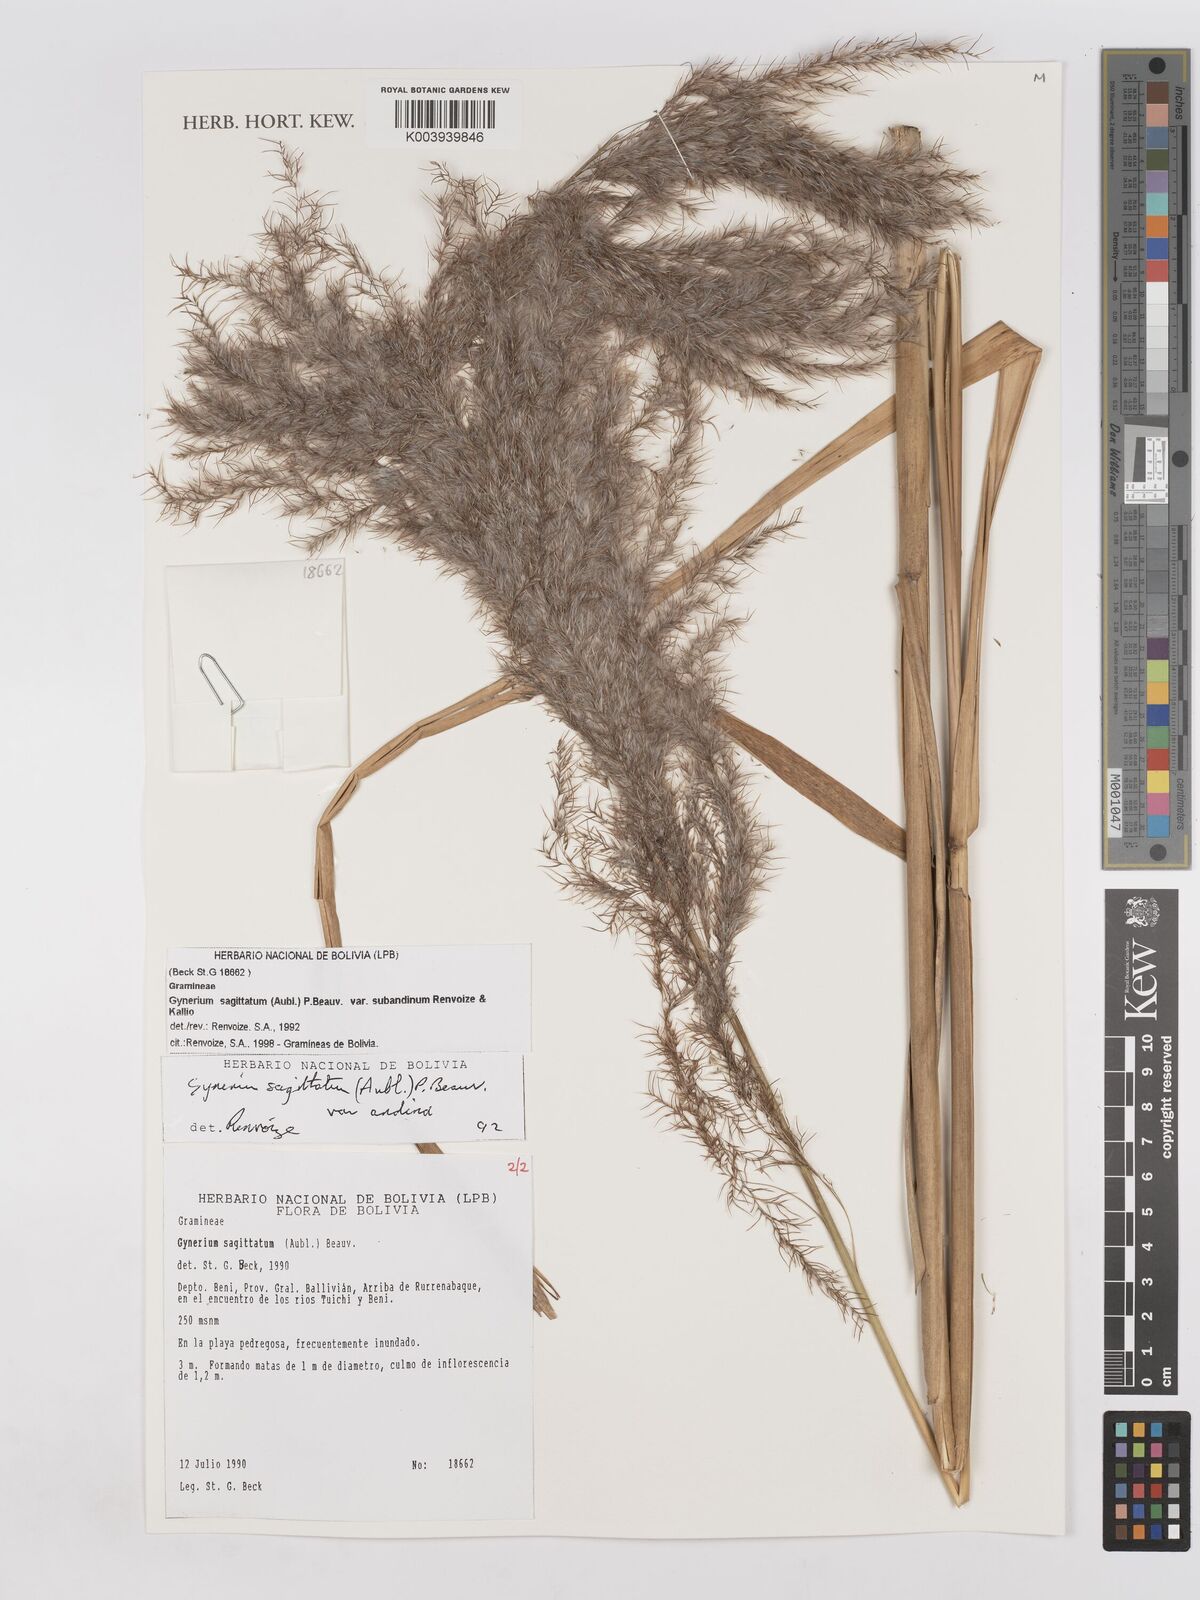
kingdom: Plantae
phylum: Tracheophyta
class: Liliopsida
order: Poales
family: Poaceae
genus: Gynerium
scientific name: Gynerium sagittatum
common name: Wild cane
